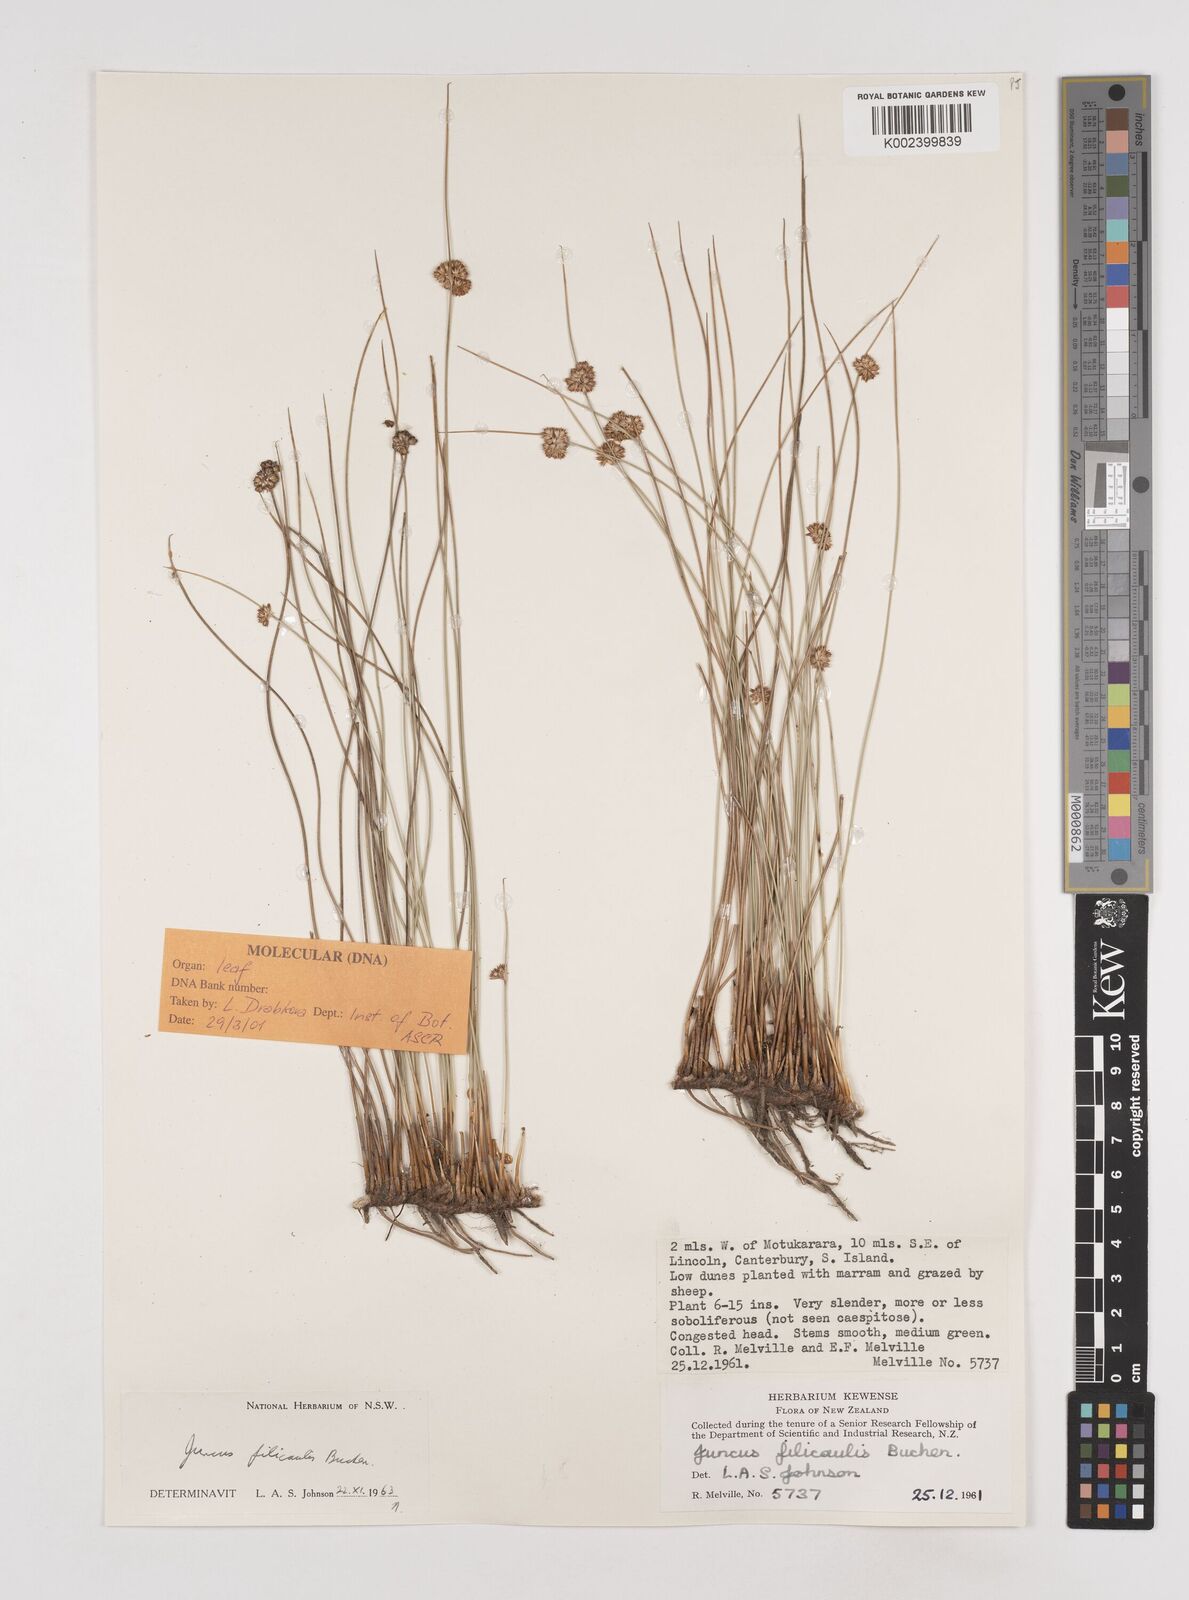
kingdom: Plantae
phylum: Tracheophyta
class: Liliopsida
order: Poales
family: Juncaceae
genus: Juncus
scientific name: Juncus filicaulis
